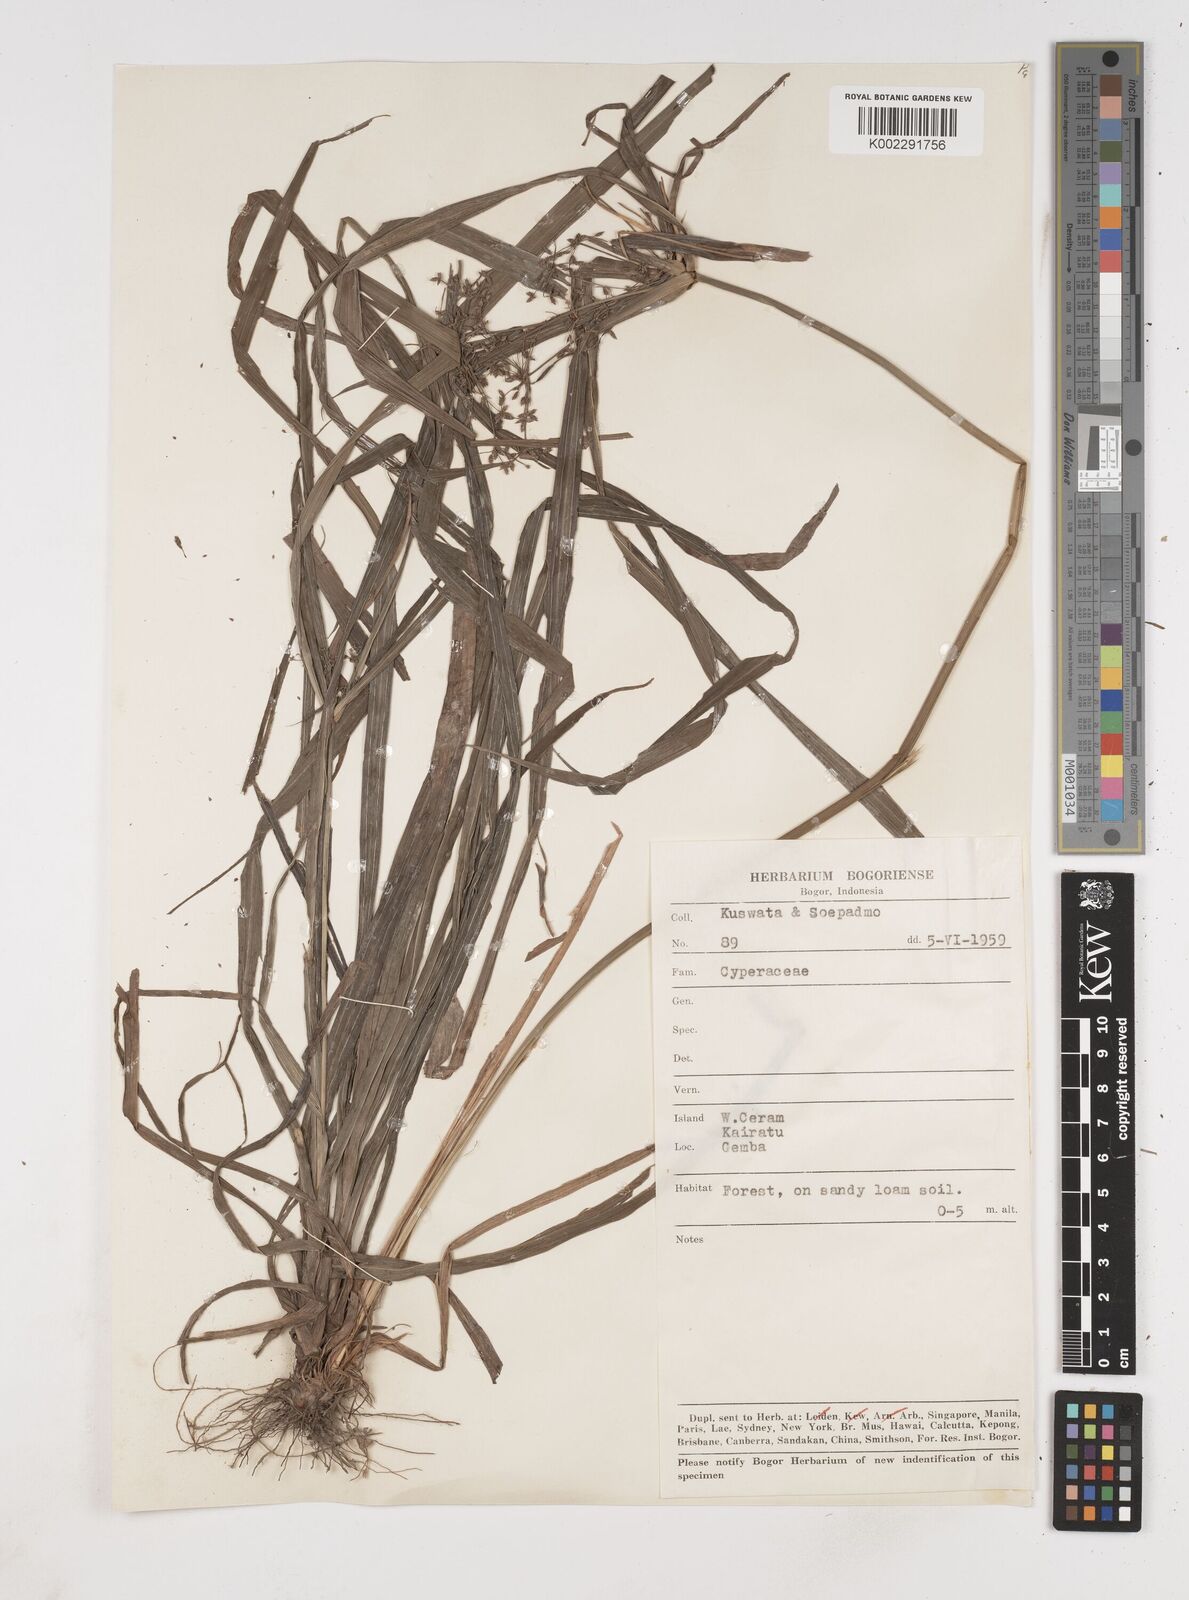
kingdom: Plantae
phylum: Tracheophyta
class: Liliopsida
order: Poales
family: Cyperaceae
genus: Cyperus
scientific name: Cyperus diffusus
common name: Dwarf umbrella grass
